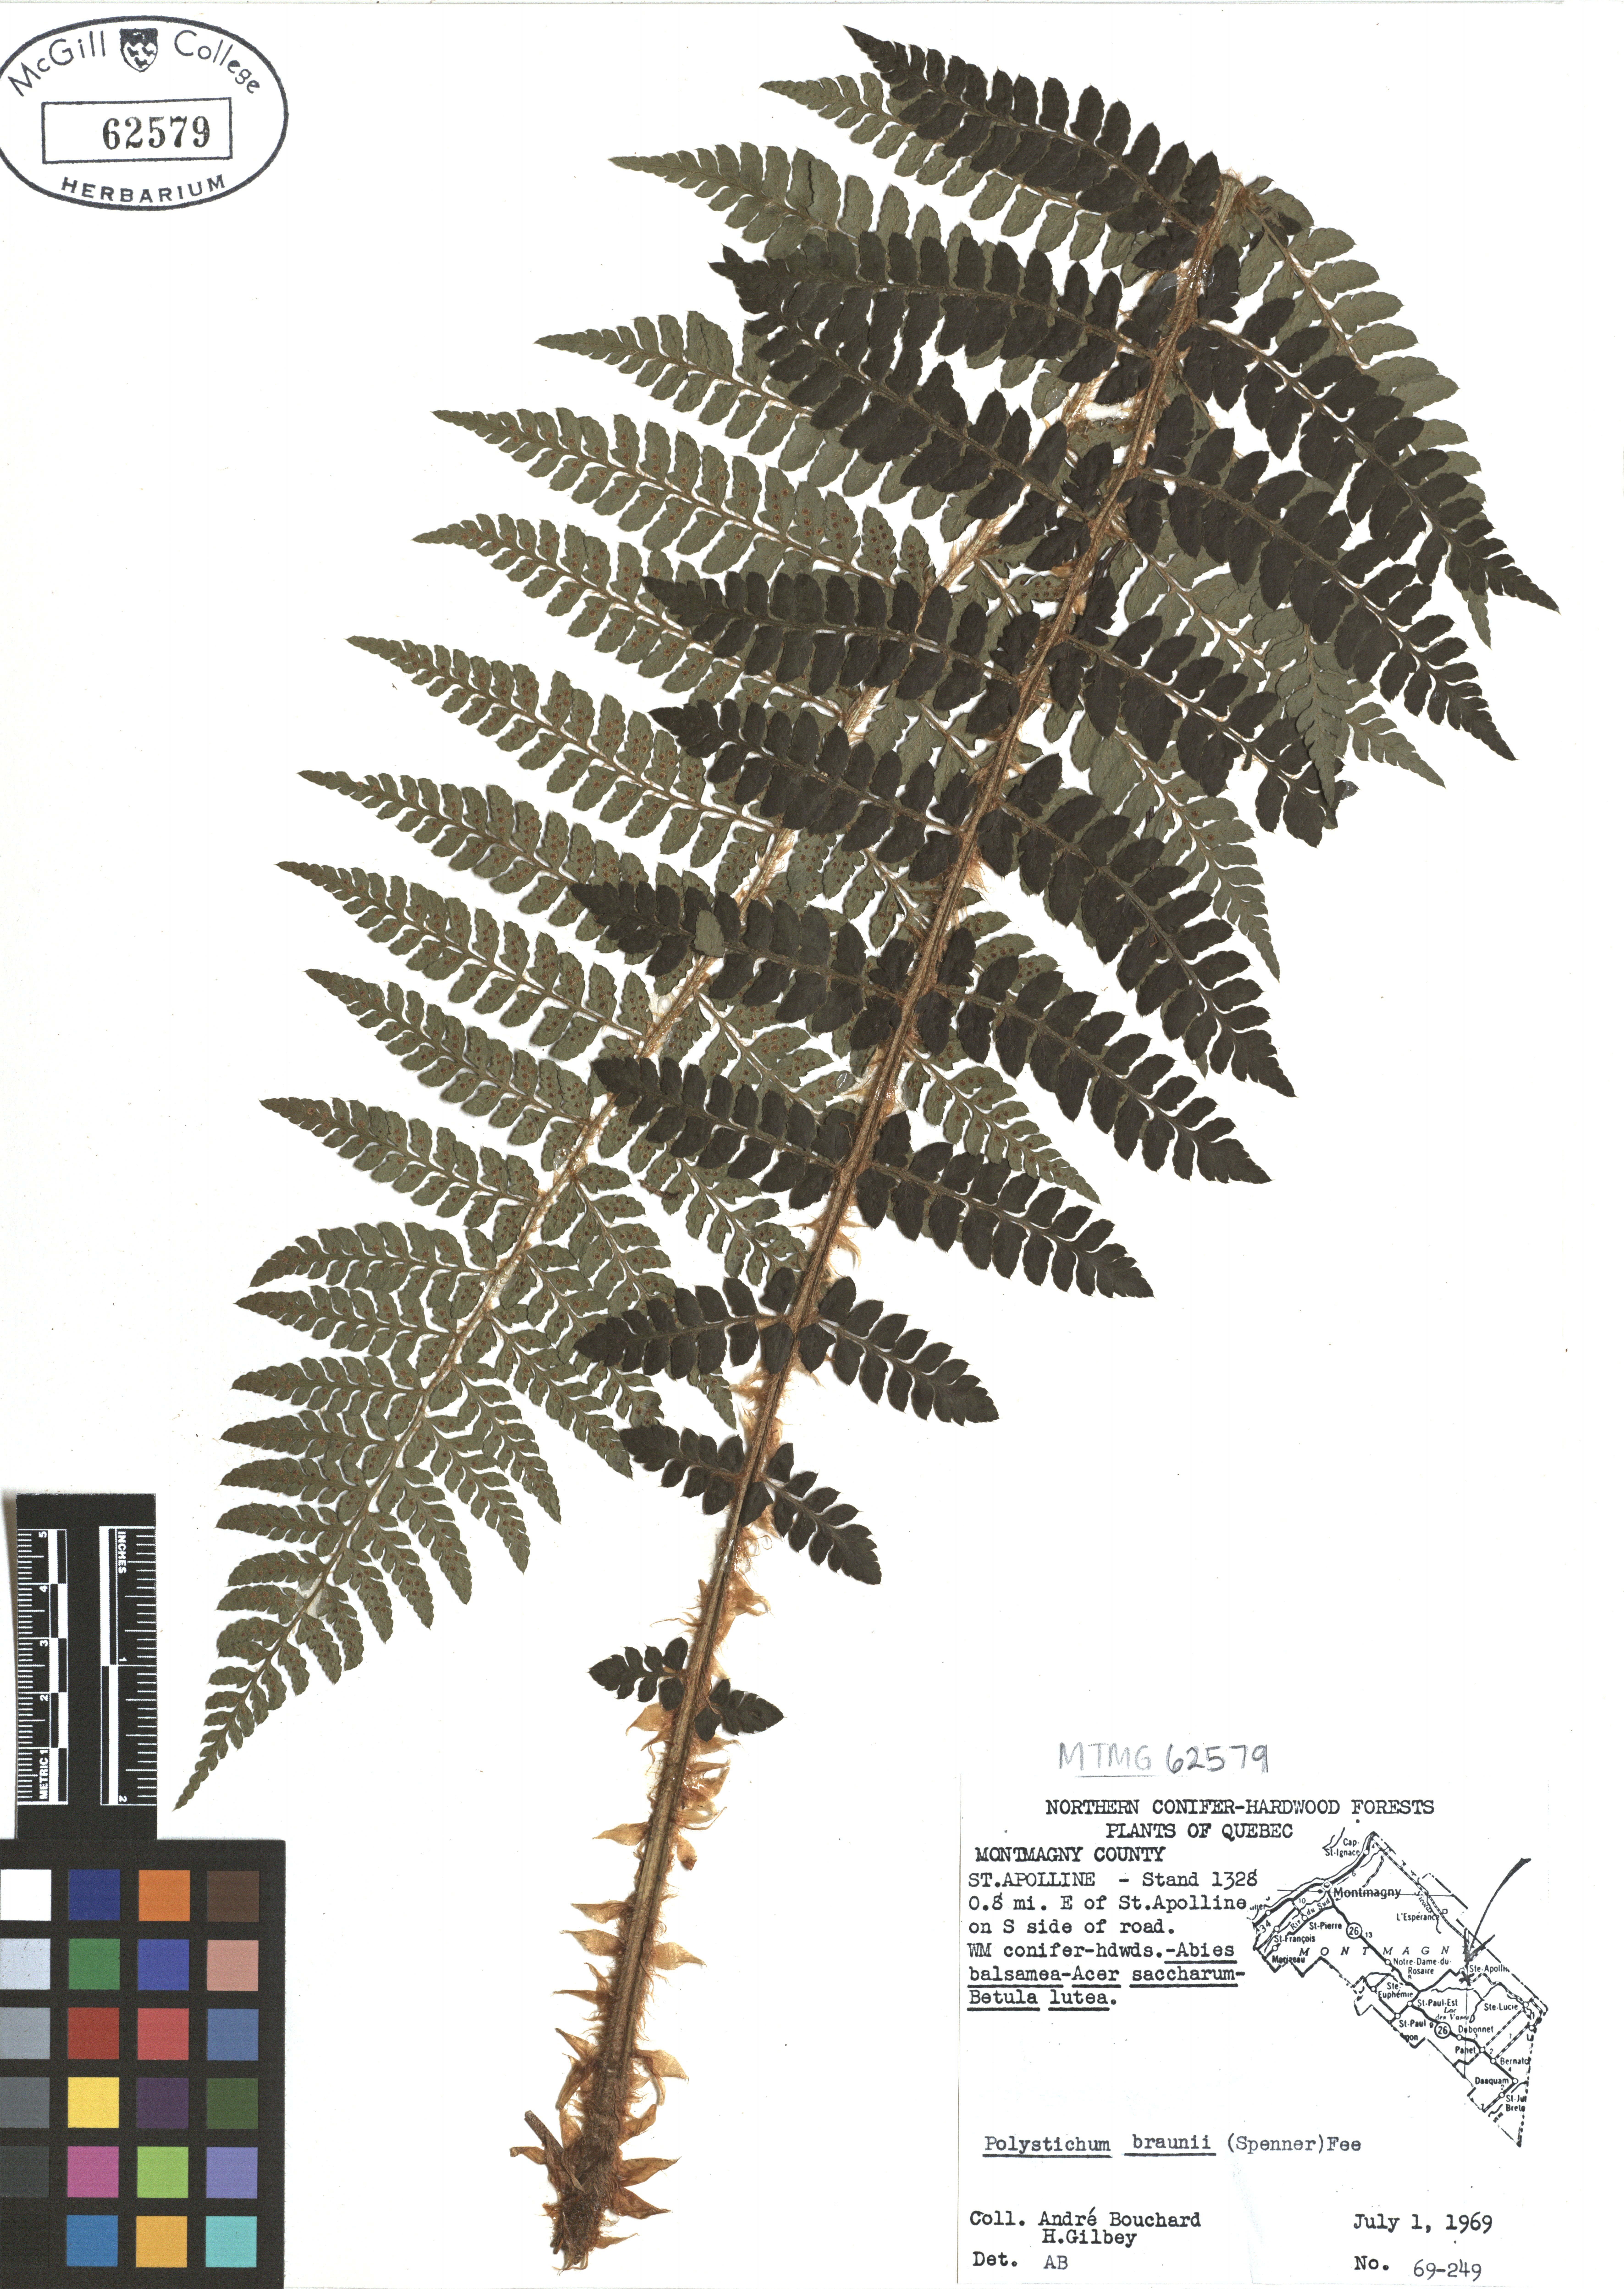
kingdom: Plantae
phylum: Tracheophyta
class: Polypodiopsida
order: Polypodiales
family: Dryopteridaceae
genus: Polystichum
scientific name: Polystichum braunii
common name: Braun's holly fern
